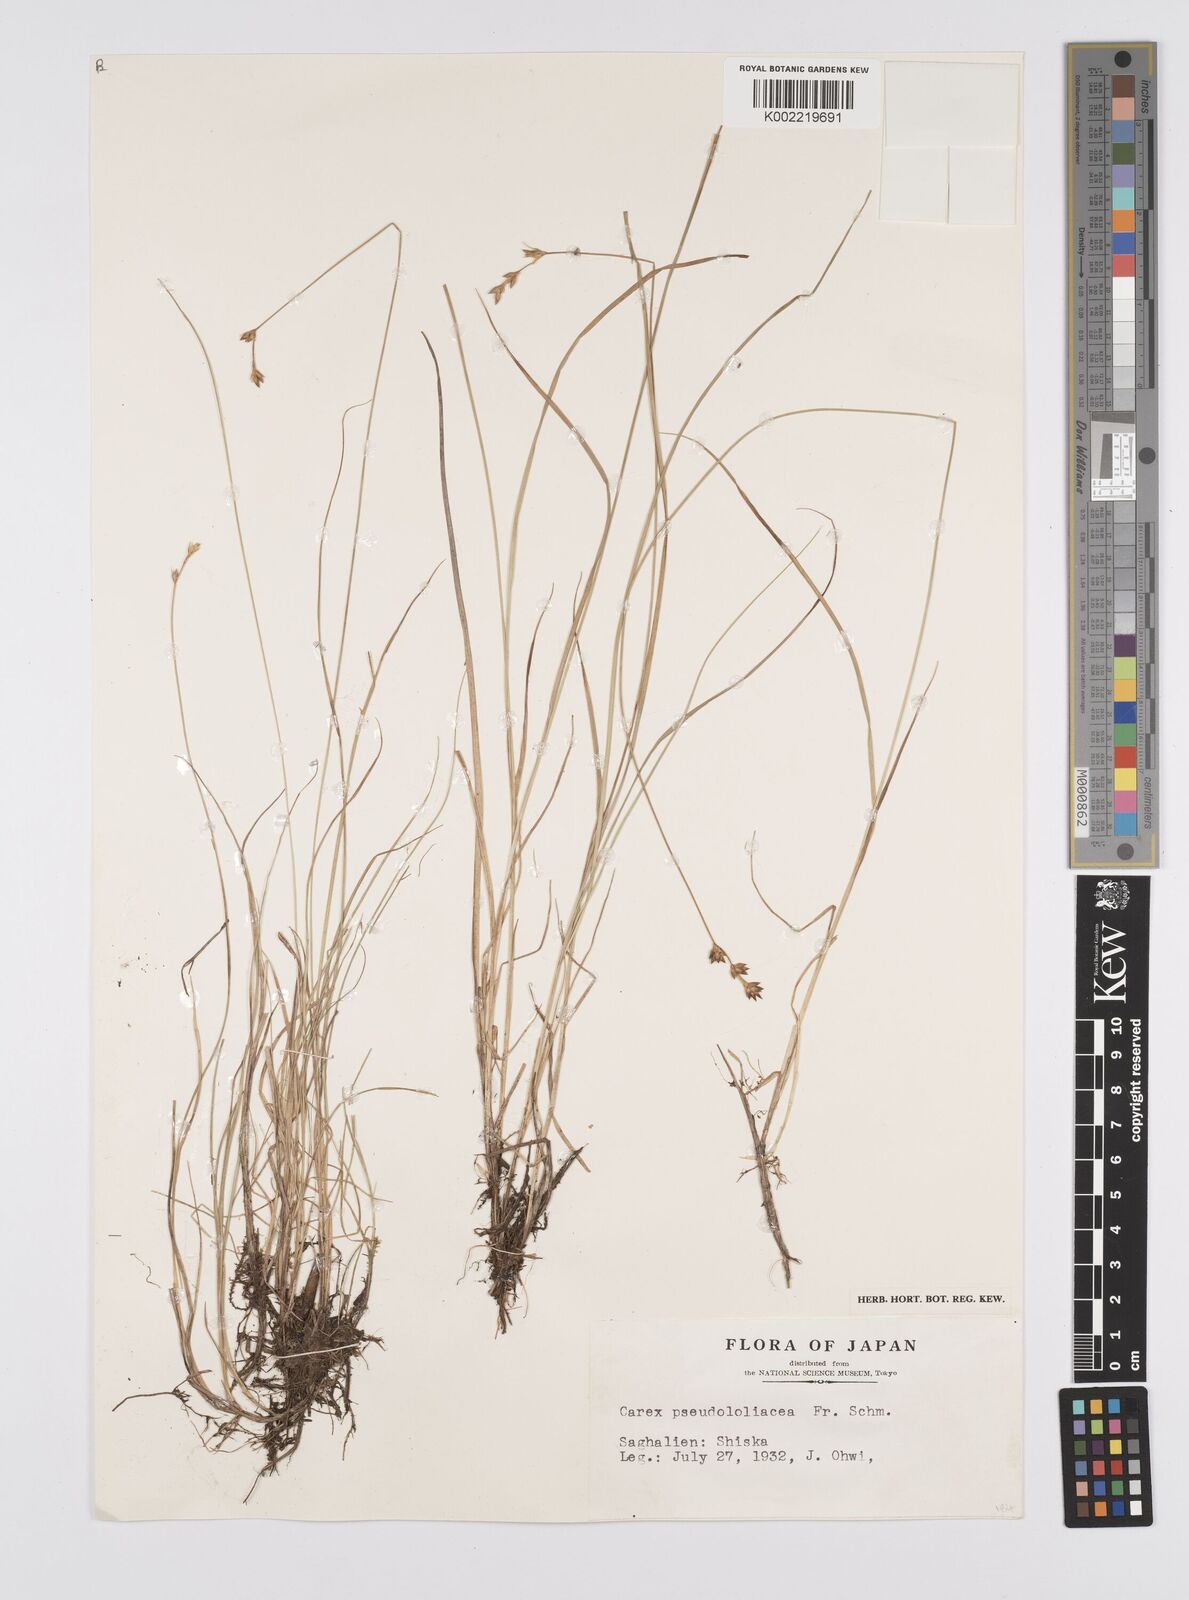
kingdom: Plantae
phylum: Tracheophyta
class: Liliopsida
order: Poales
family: Cyperaceae
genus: Carex
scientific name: Carex pseudololiacea
